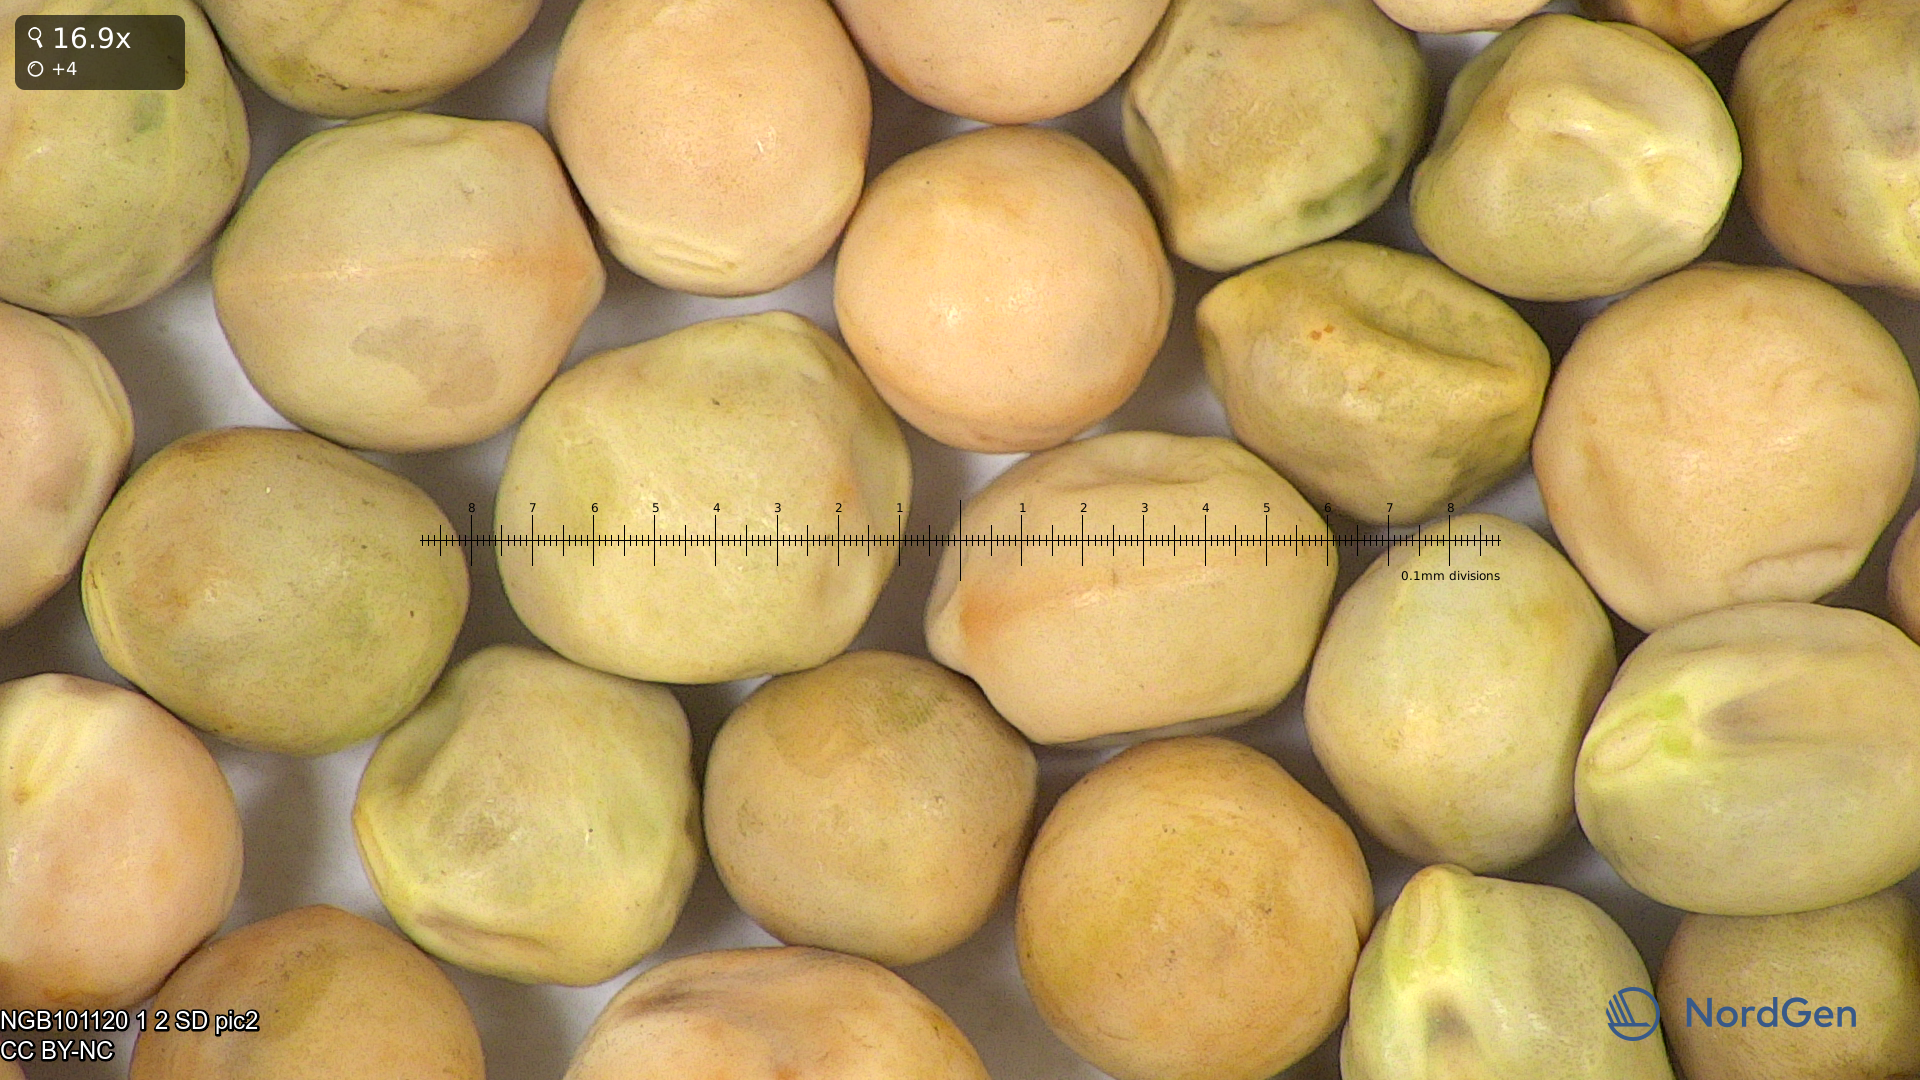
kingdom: Plantae
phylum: Tracheophyta
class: Magnoliopsida
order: Fabales
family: Fabaceae
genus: Lathyrus
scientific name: Lathyrus oleraceus
